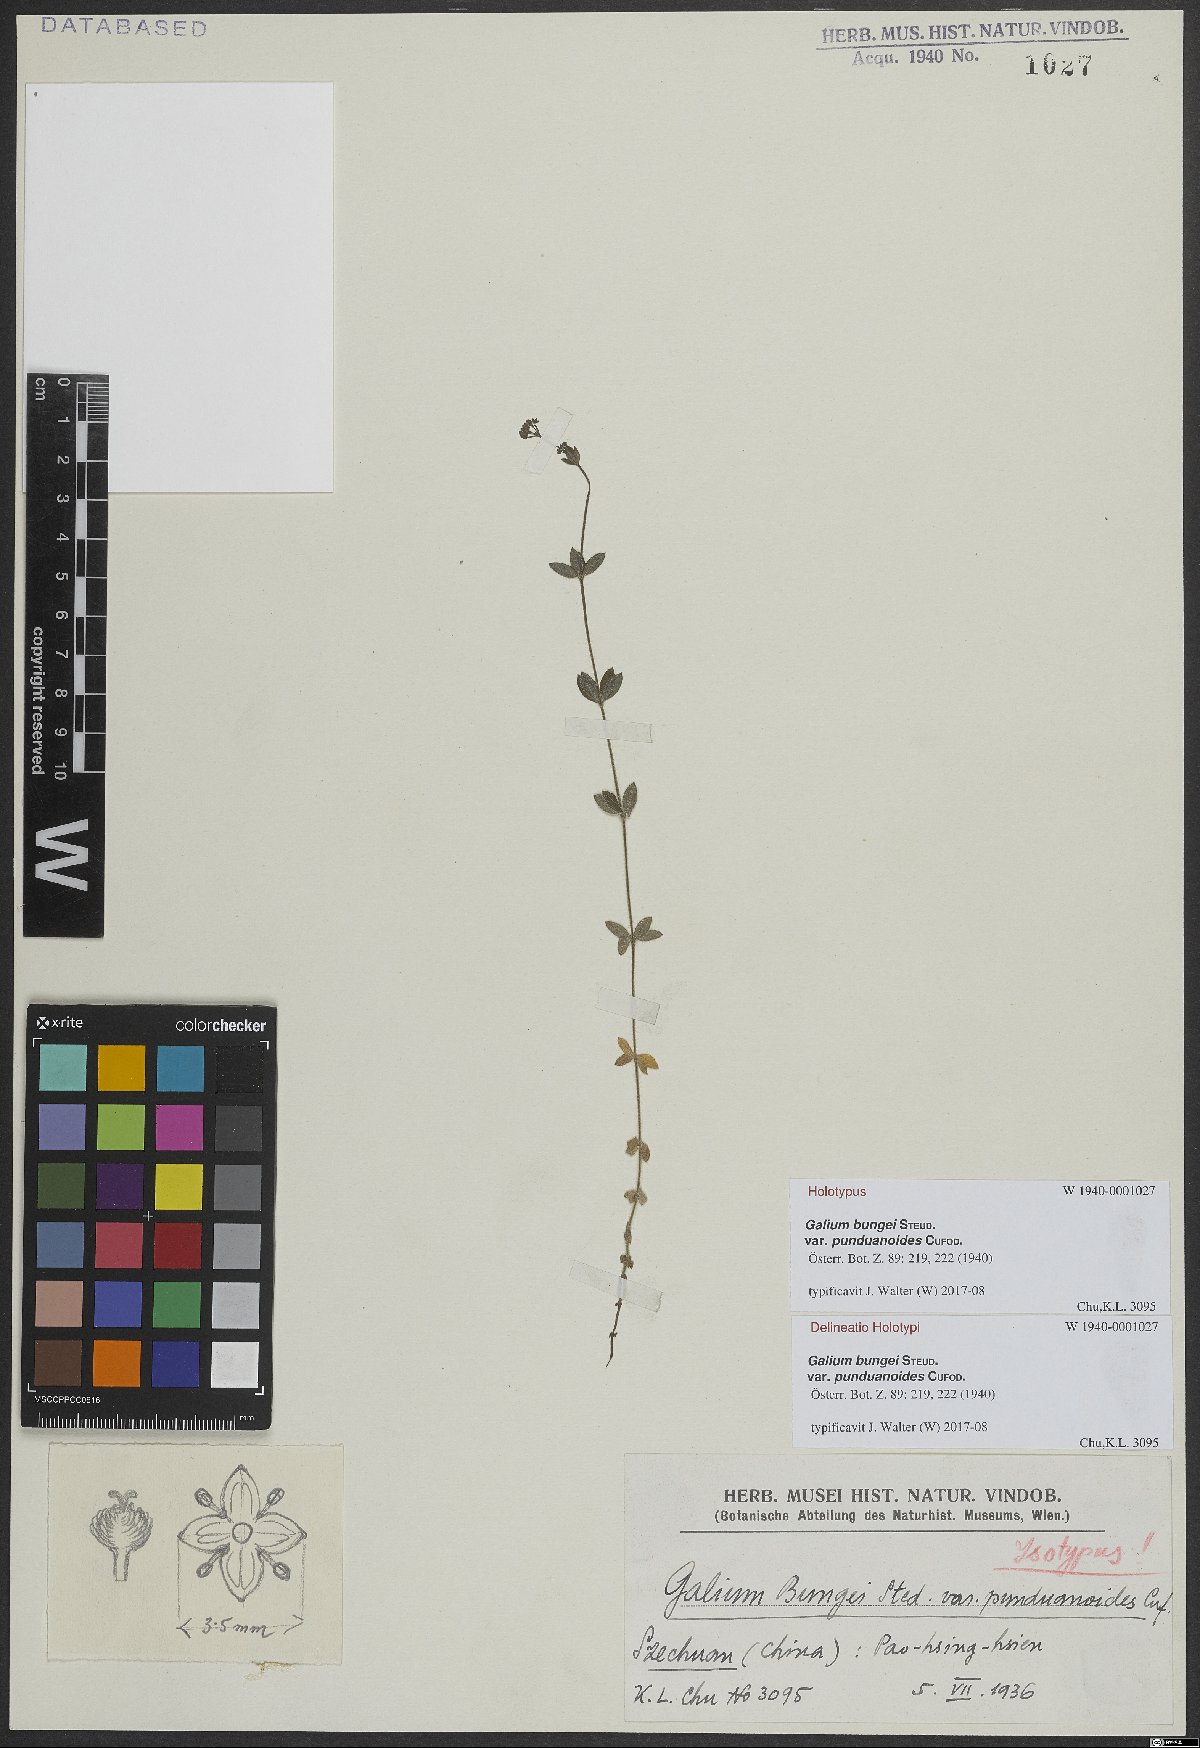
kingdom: Plantae
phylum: Tracheophyta
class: Magnoliopsida
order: Gentianales
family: Rubiaceae
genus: Galium
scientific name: Galium bungei
